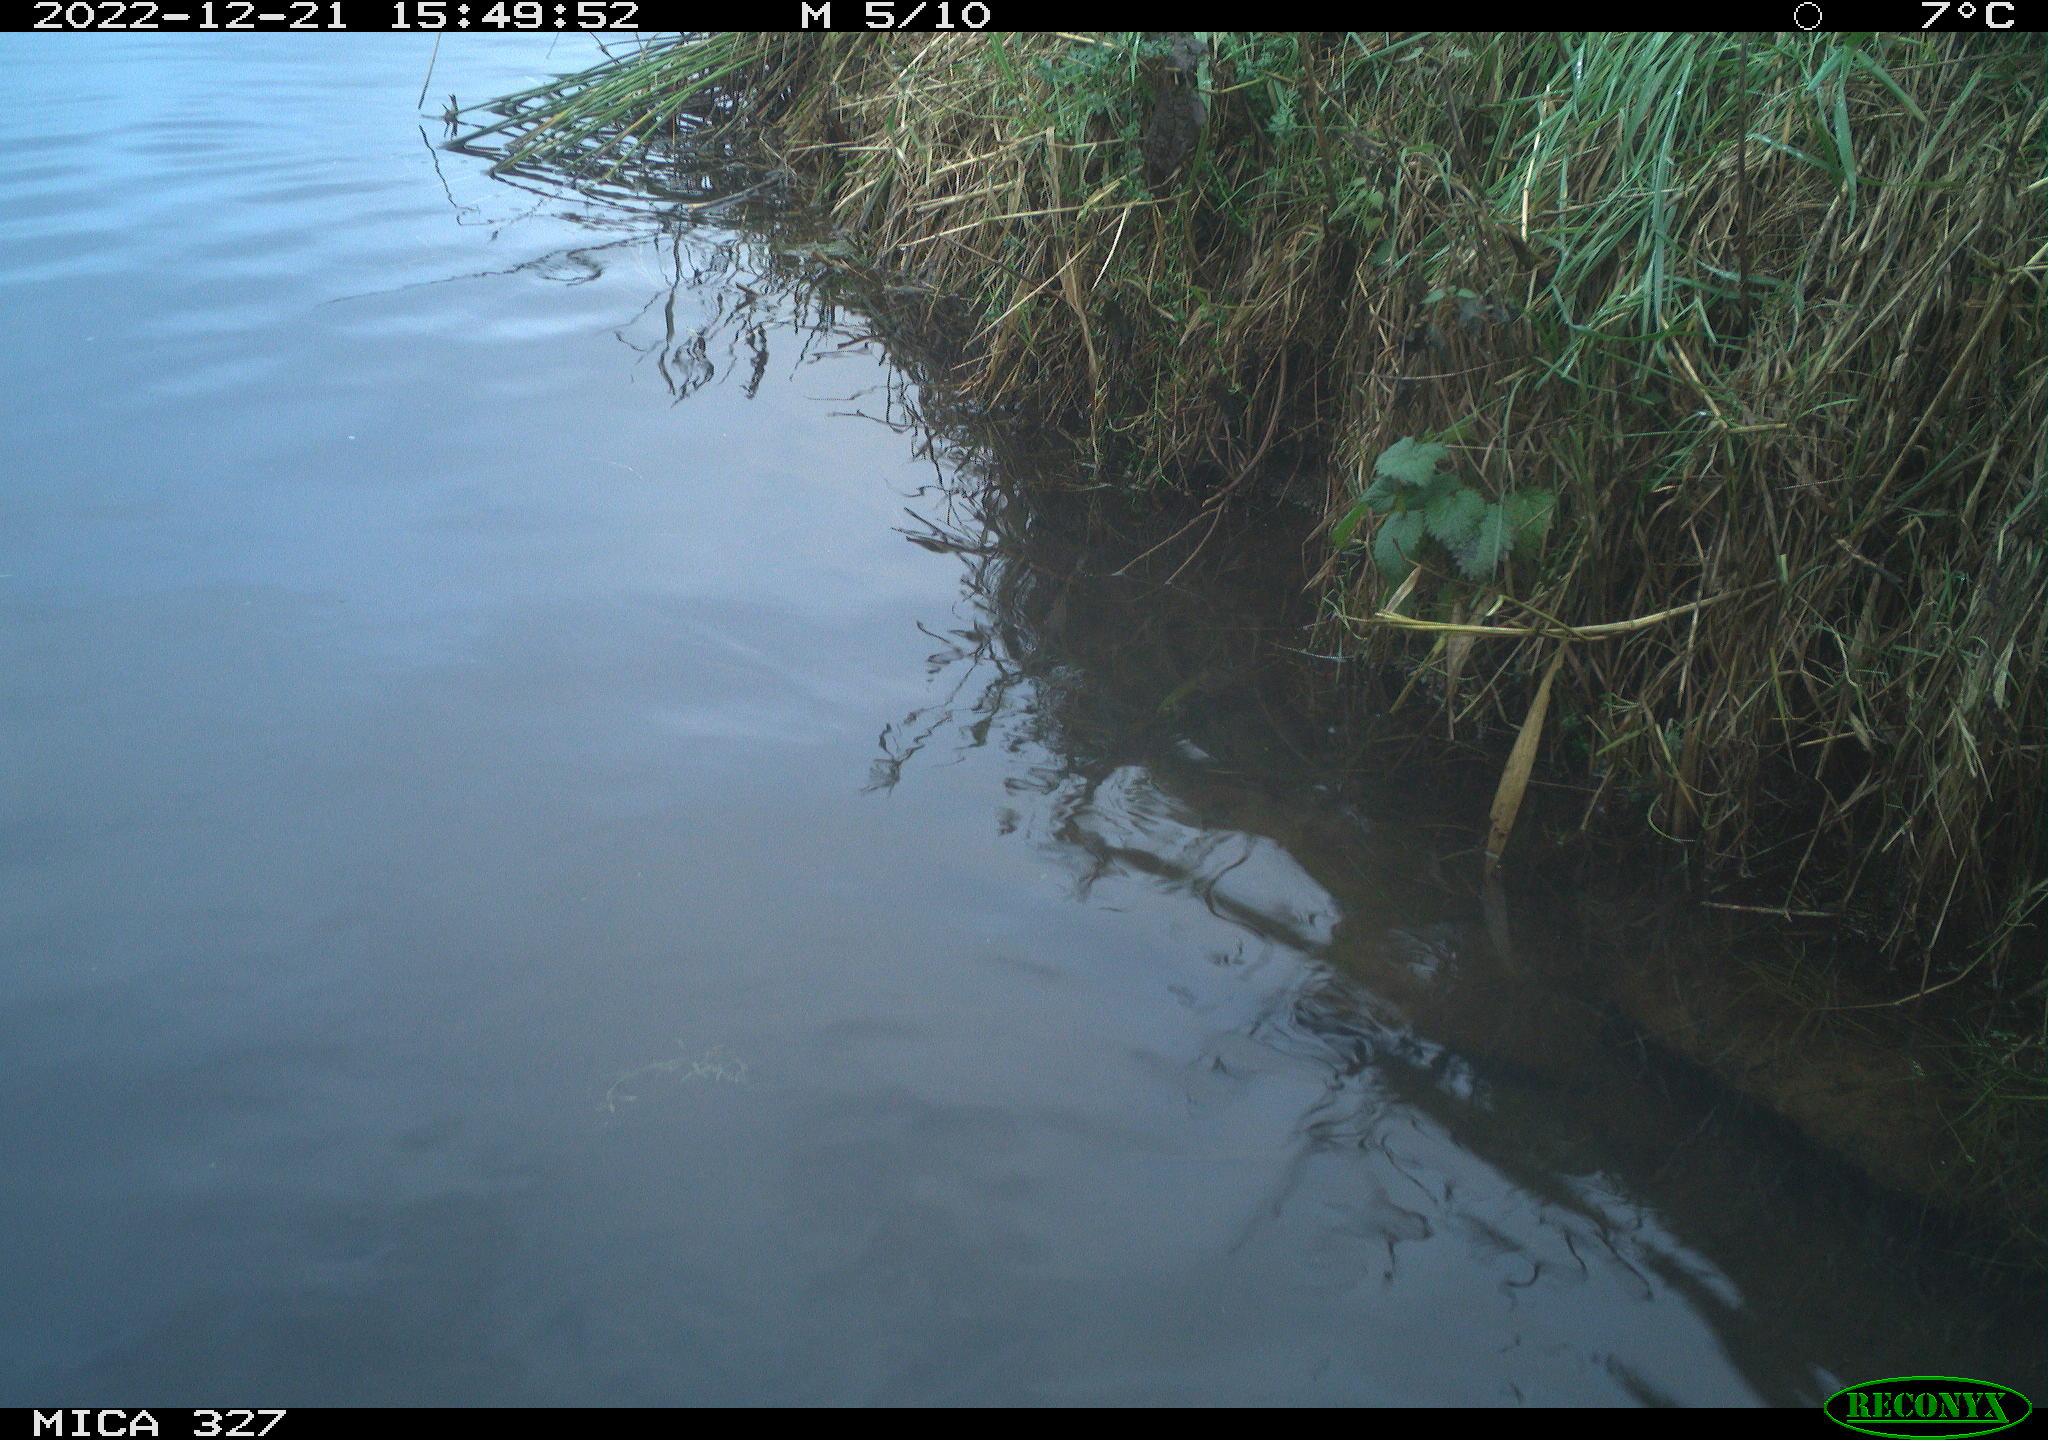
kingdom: Animalia
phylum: Chordata
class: Aves
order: Gruiformes
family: Rallidae
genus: Gallinula
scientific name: Gallinula chloropus
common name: Common moorhen
